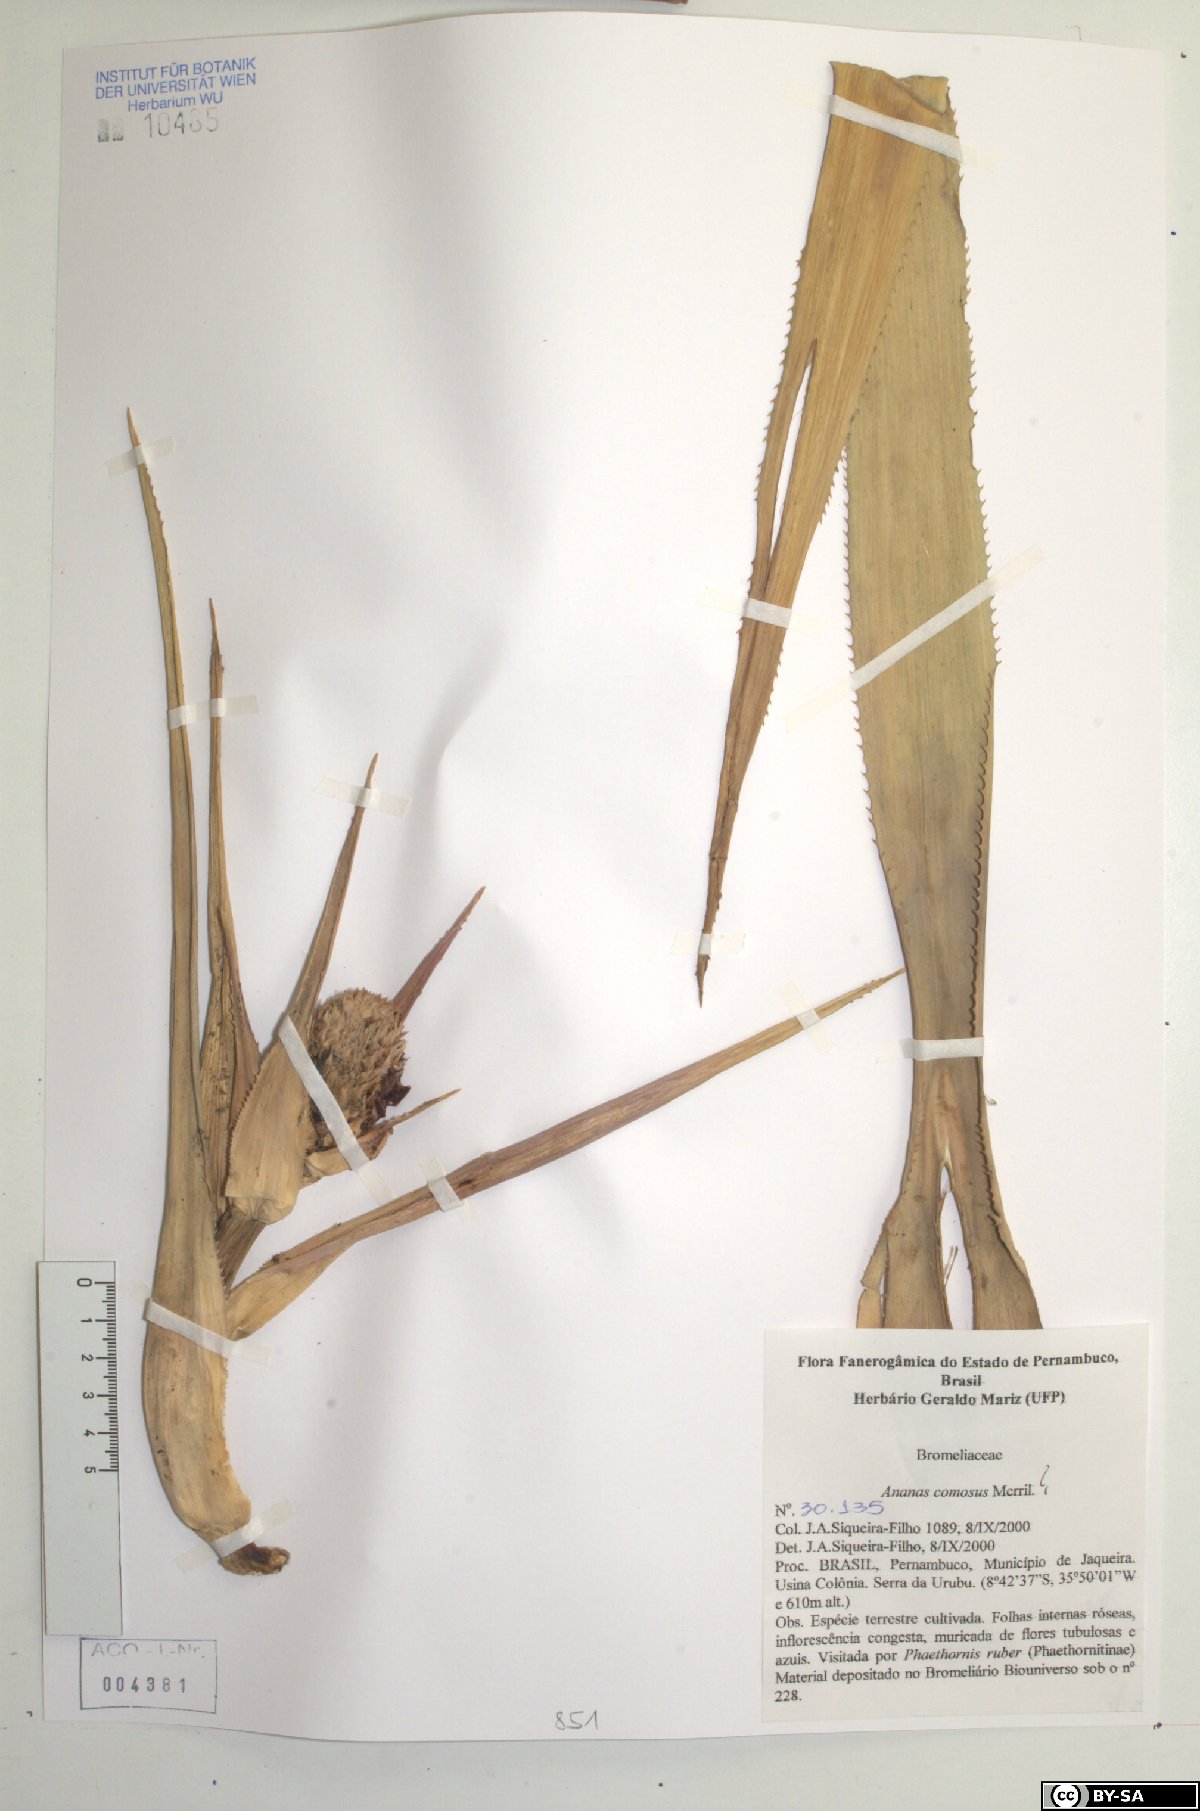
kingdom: Plantae
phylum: Tracheophyta
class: Liliopsida
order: Poales
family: Bromeliaceae
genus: Ananas
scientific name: Ananas comosus
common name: Pineapple
